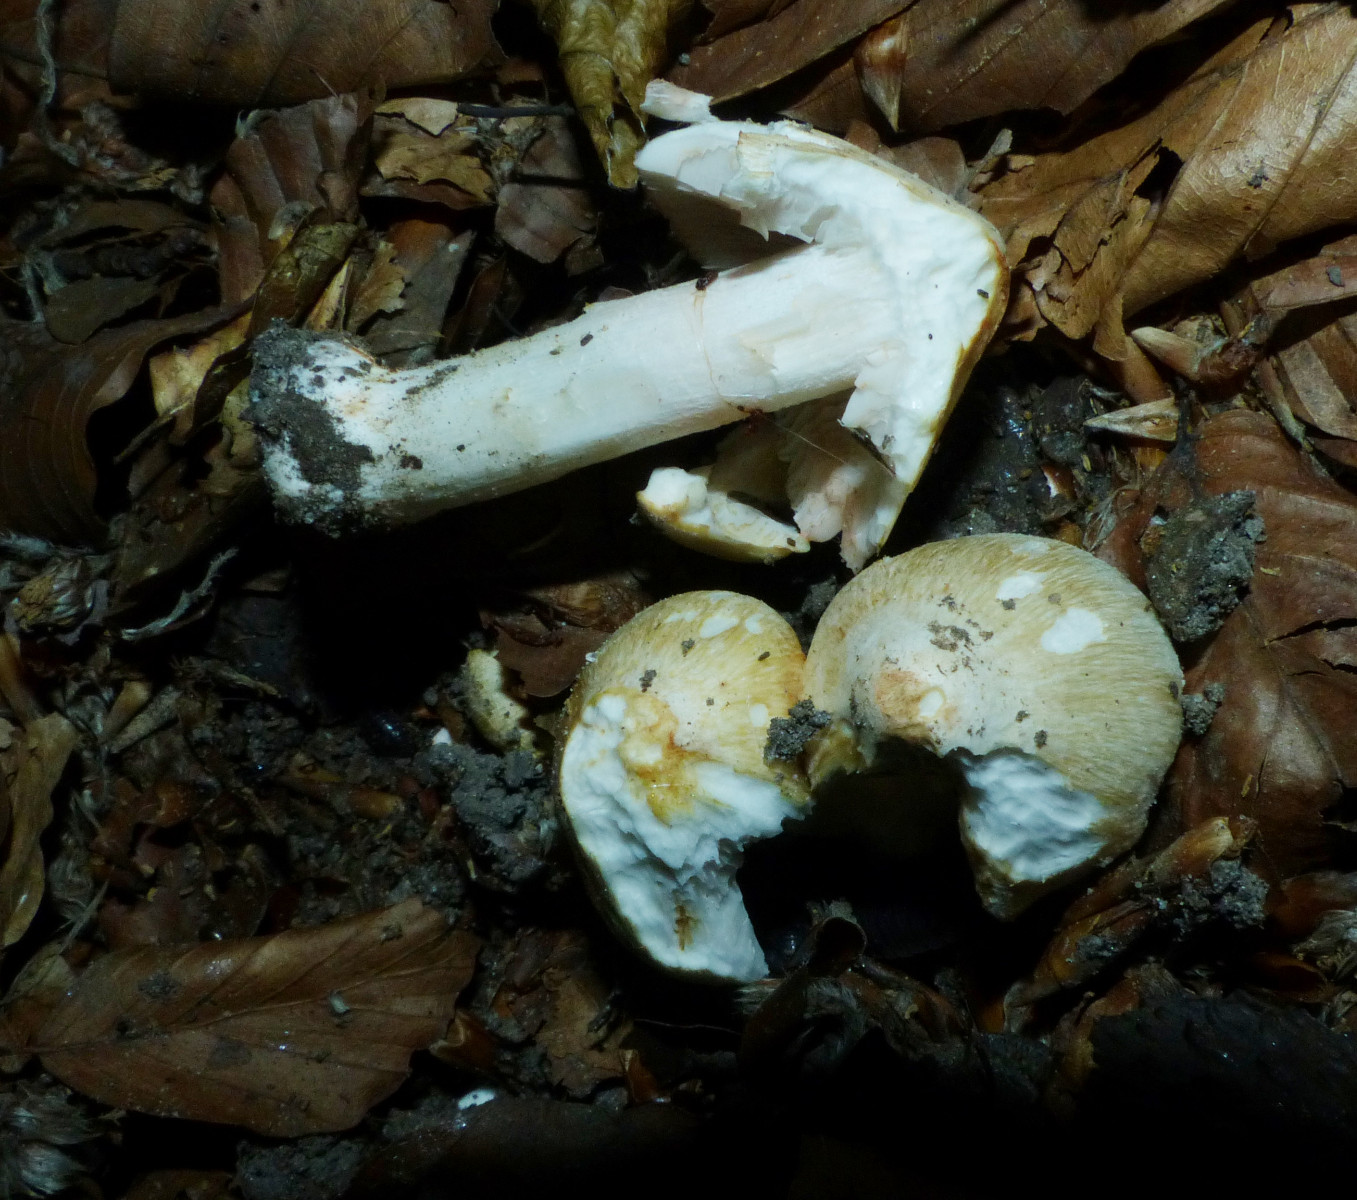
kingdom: Fungi
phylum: Basidiomycota
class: Agaricomycetes
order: Agaricales
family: Inocybaceae
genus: Inosperma
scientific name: Inosperma erubescens
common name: giftig trævlhat
